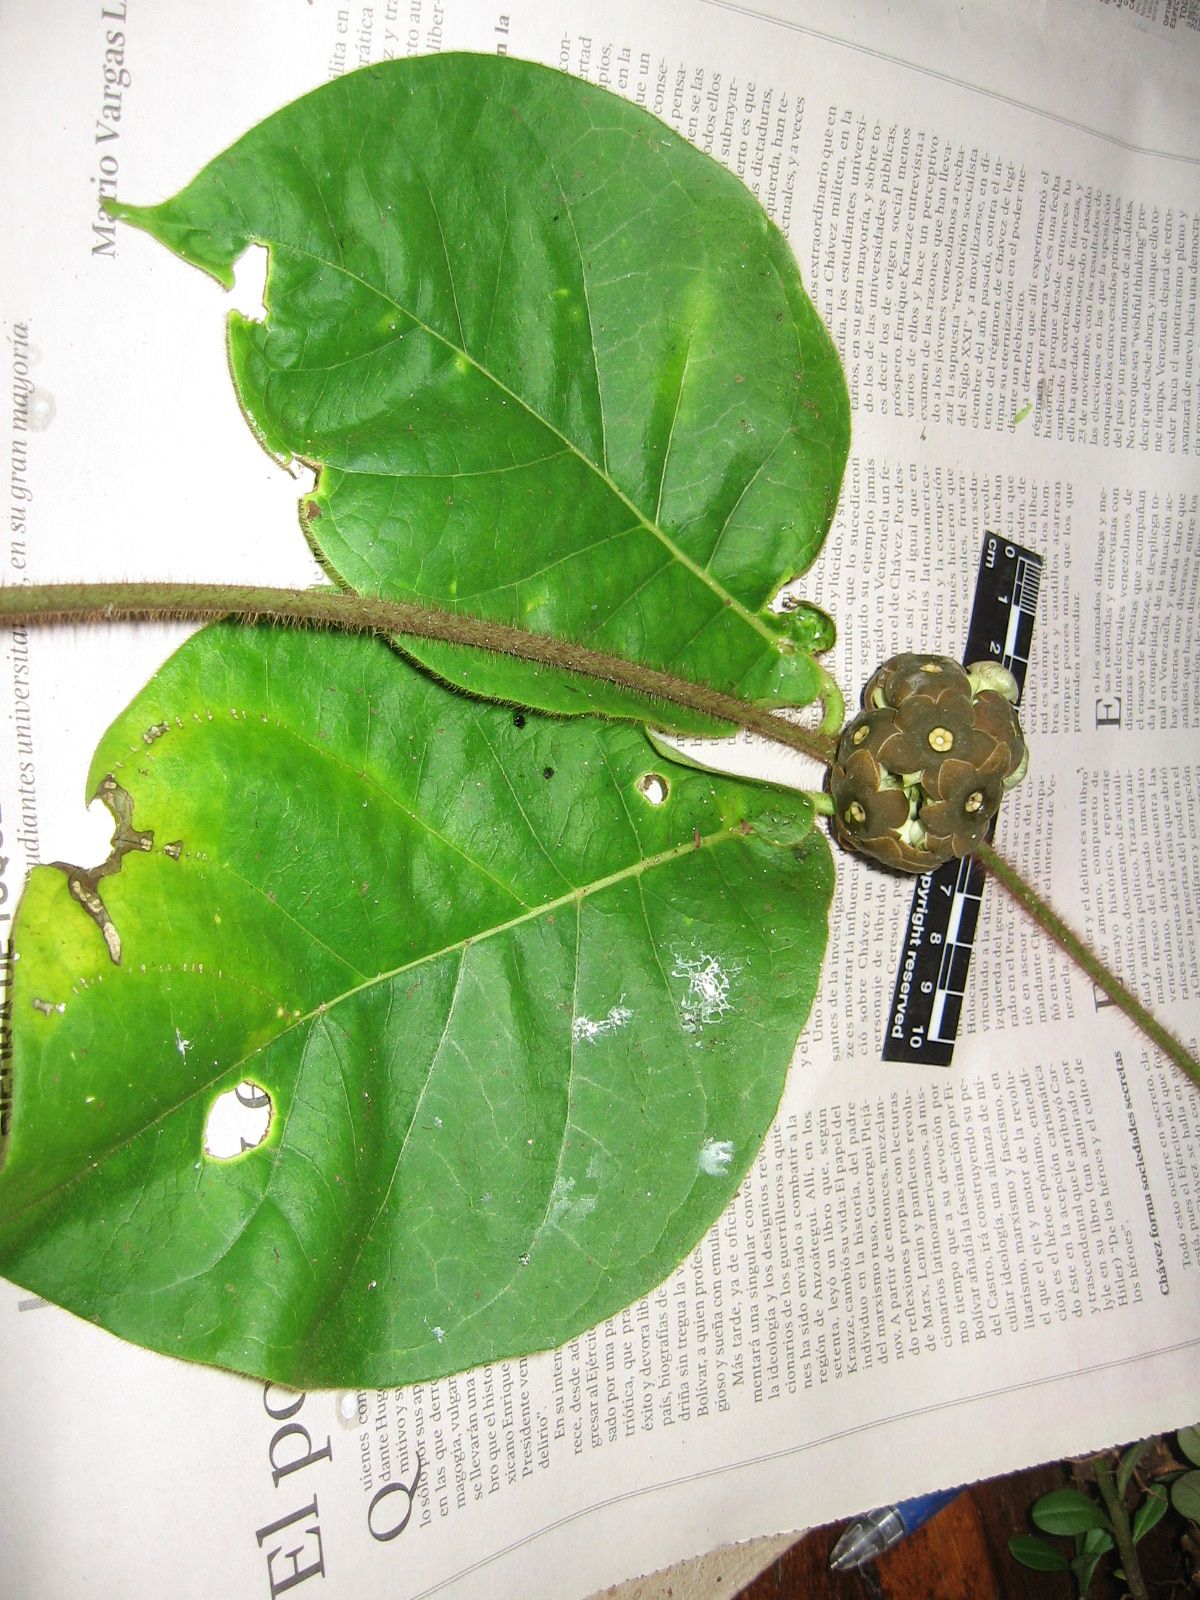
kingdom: Plantae
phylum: Tracheophyta
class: Magnoliopsida
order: Gentianales
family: Apocynaceae
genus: Macroscepis
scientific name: Macroscepis pleistantha
